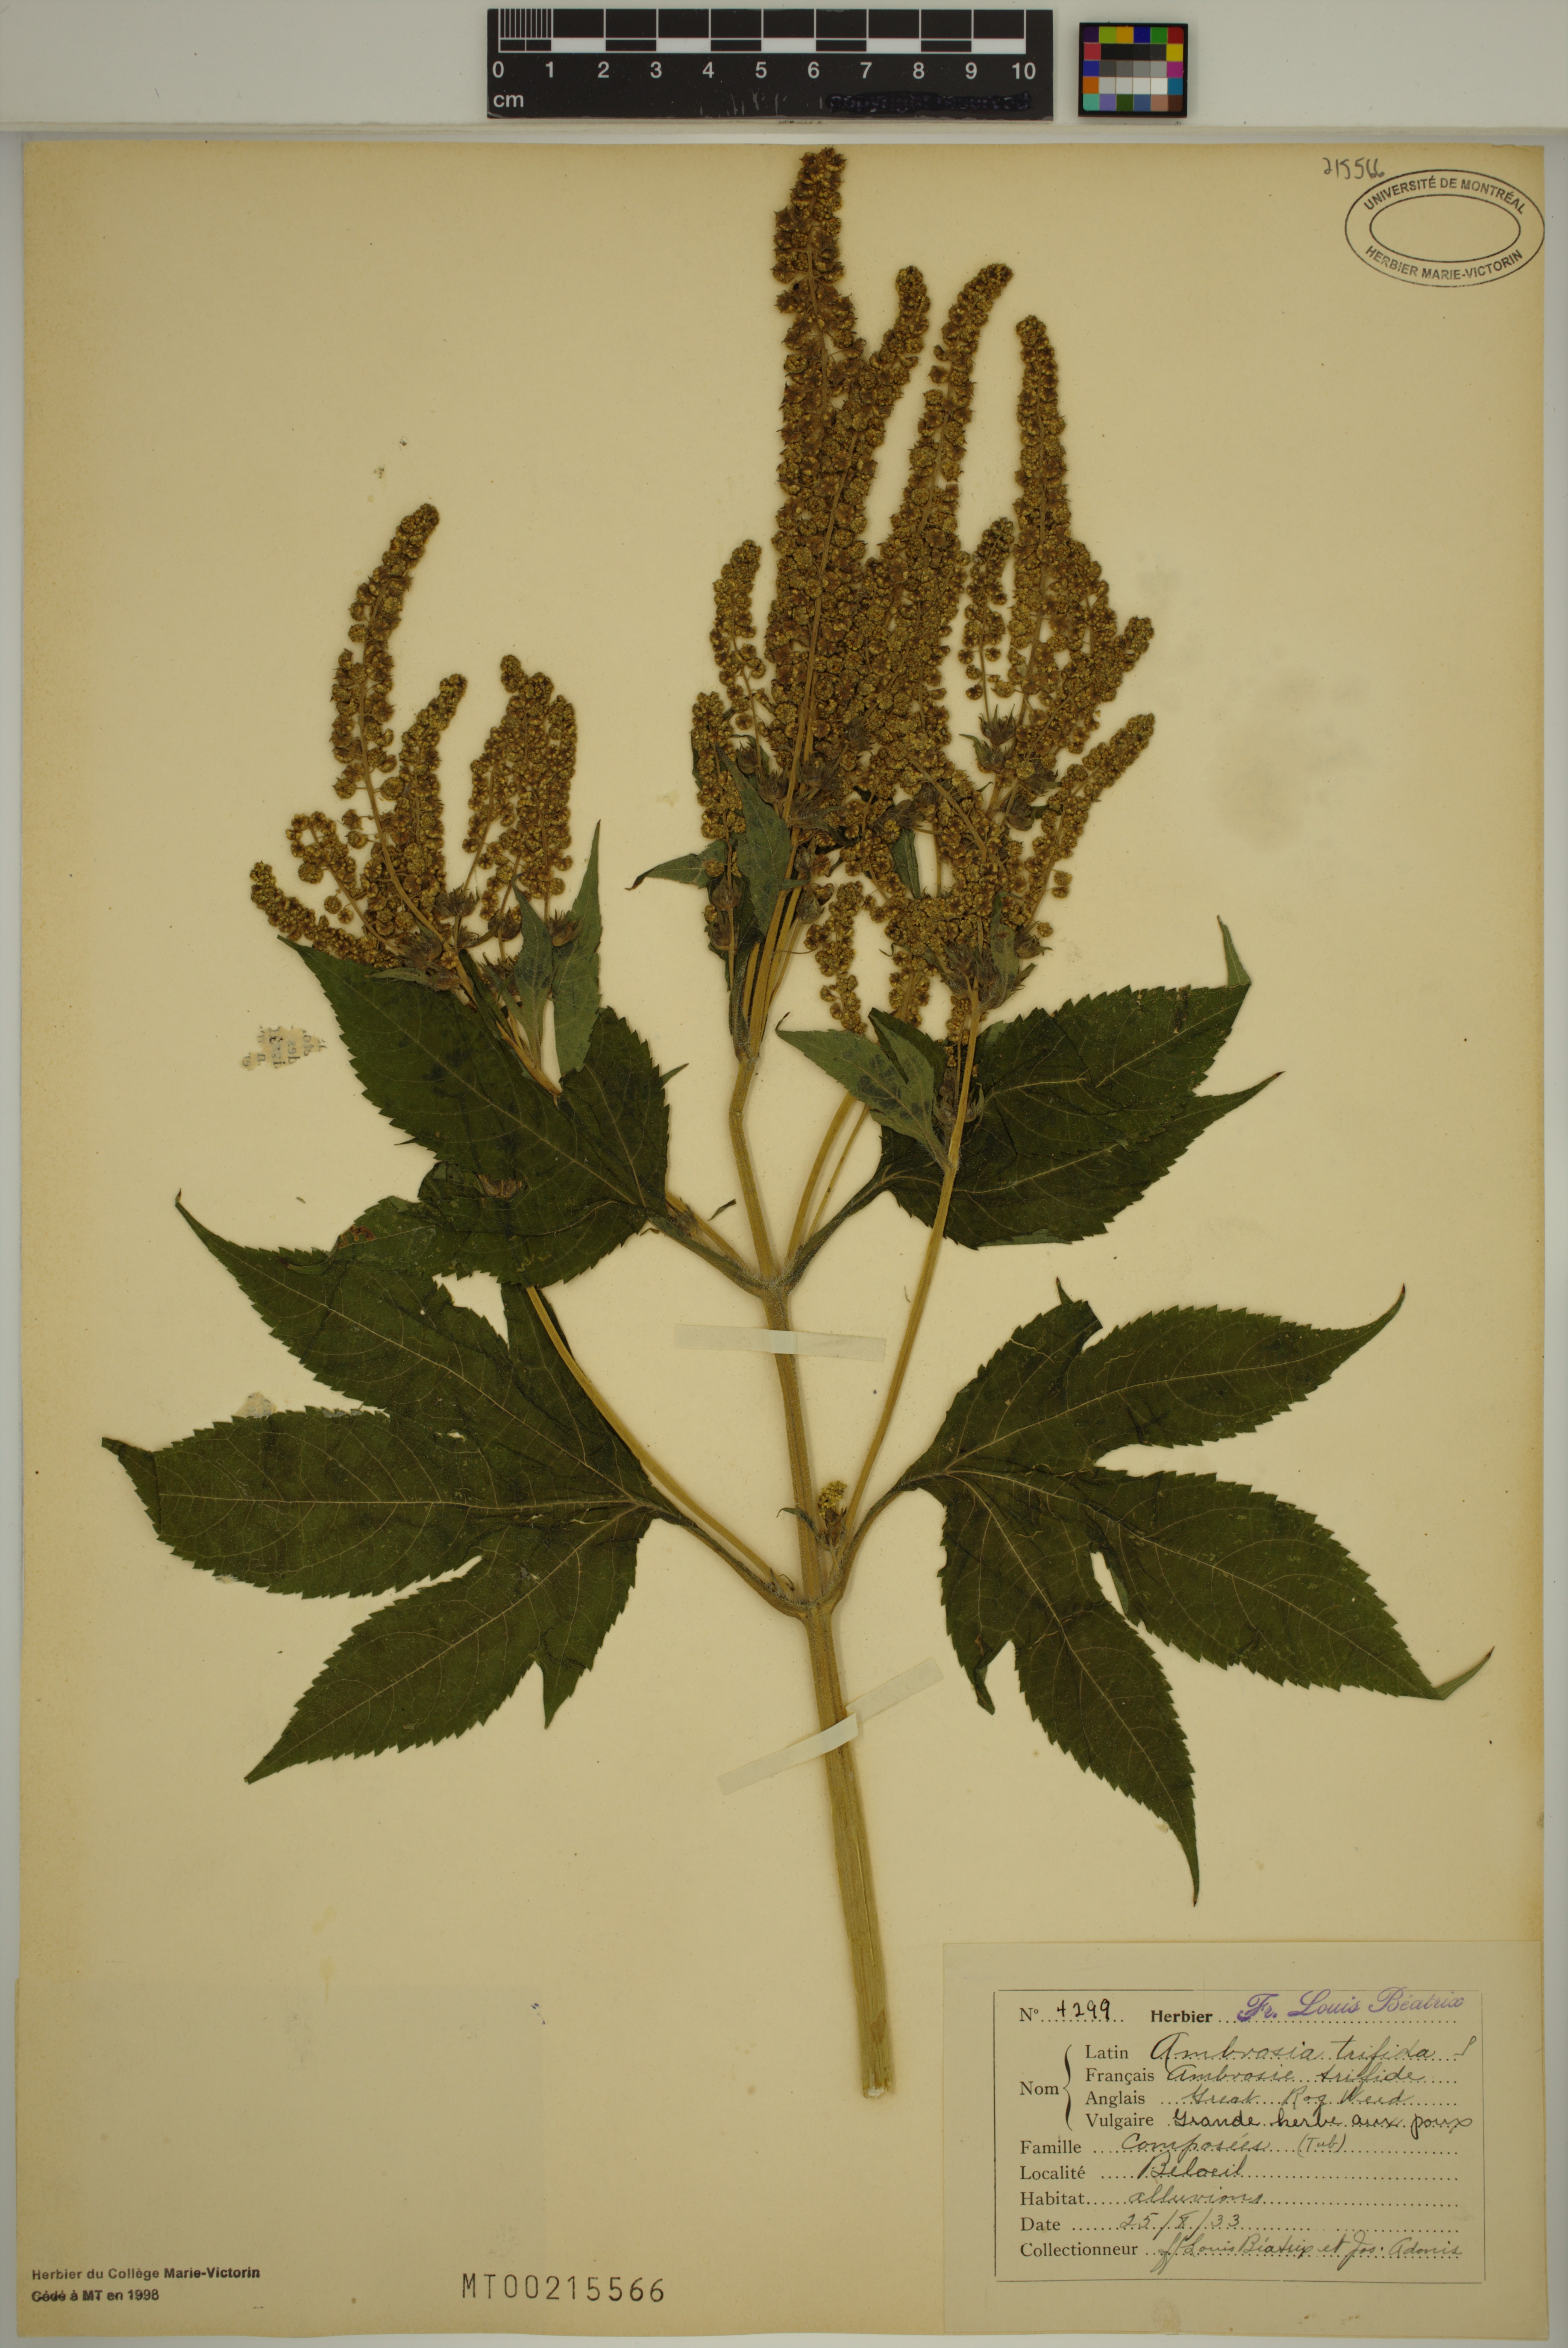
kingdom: Plantae
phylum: Tracheophyta
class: Magnoliopsida
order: Asterales
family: Asteraceae
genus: Ambrosia
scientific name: Ambrosia trifida
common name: Giant ragweed
